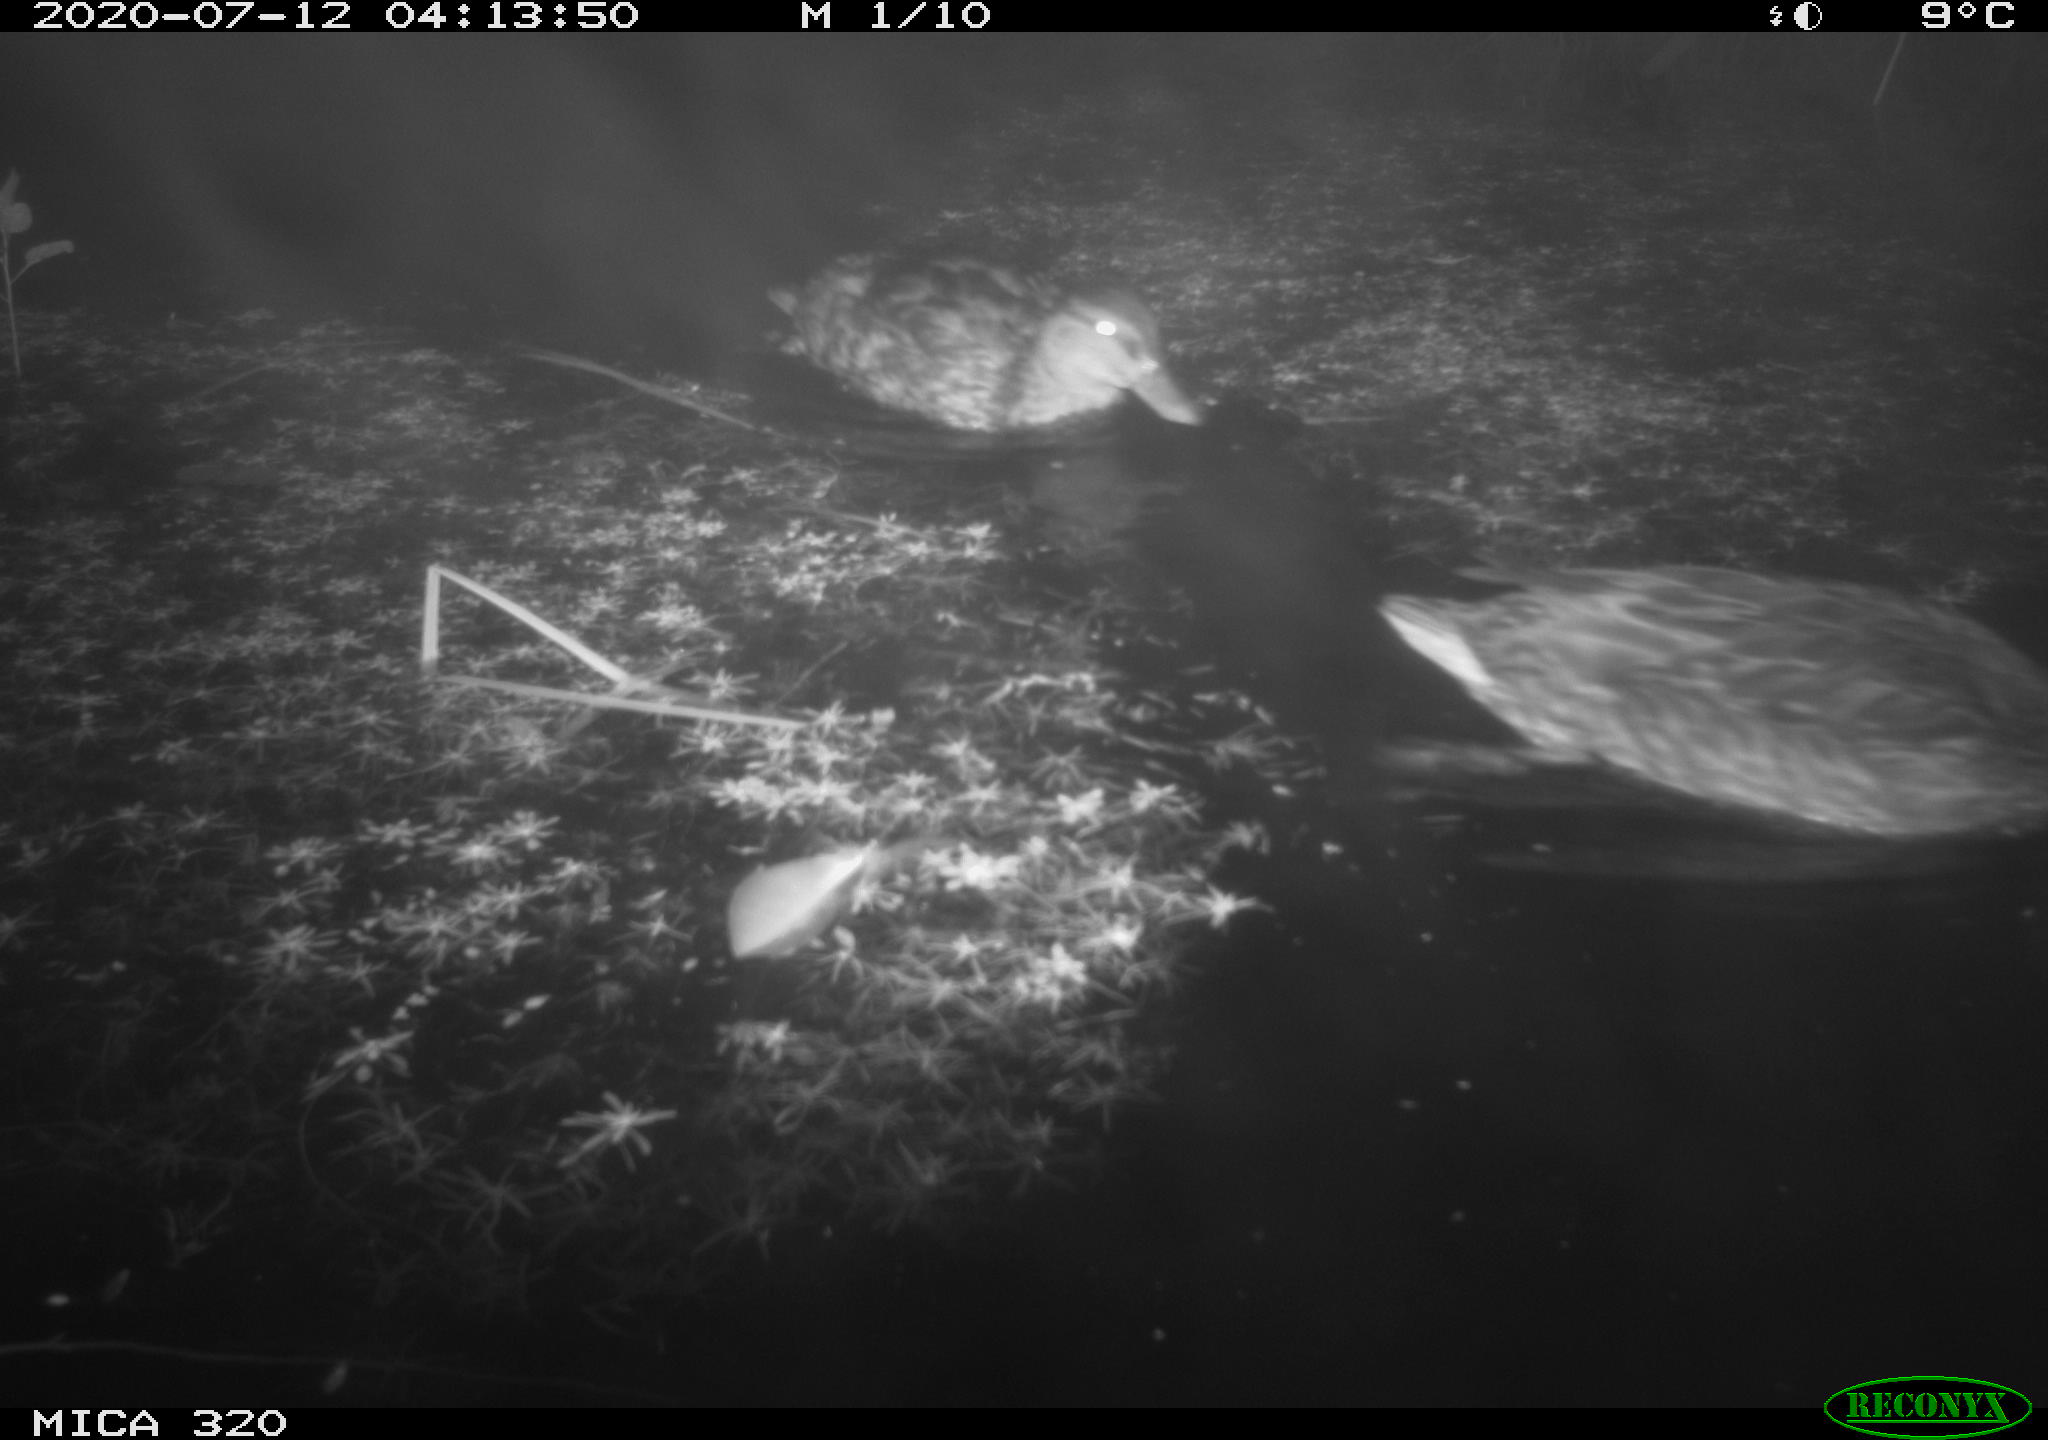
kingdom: Animalia
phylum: Chordata
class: Aves
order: Anseriformes
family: Anatidae
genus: Anas
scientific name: Anas platyrhynchos
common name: Mallard
